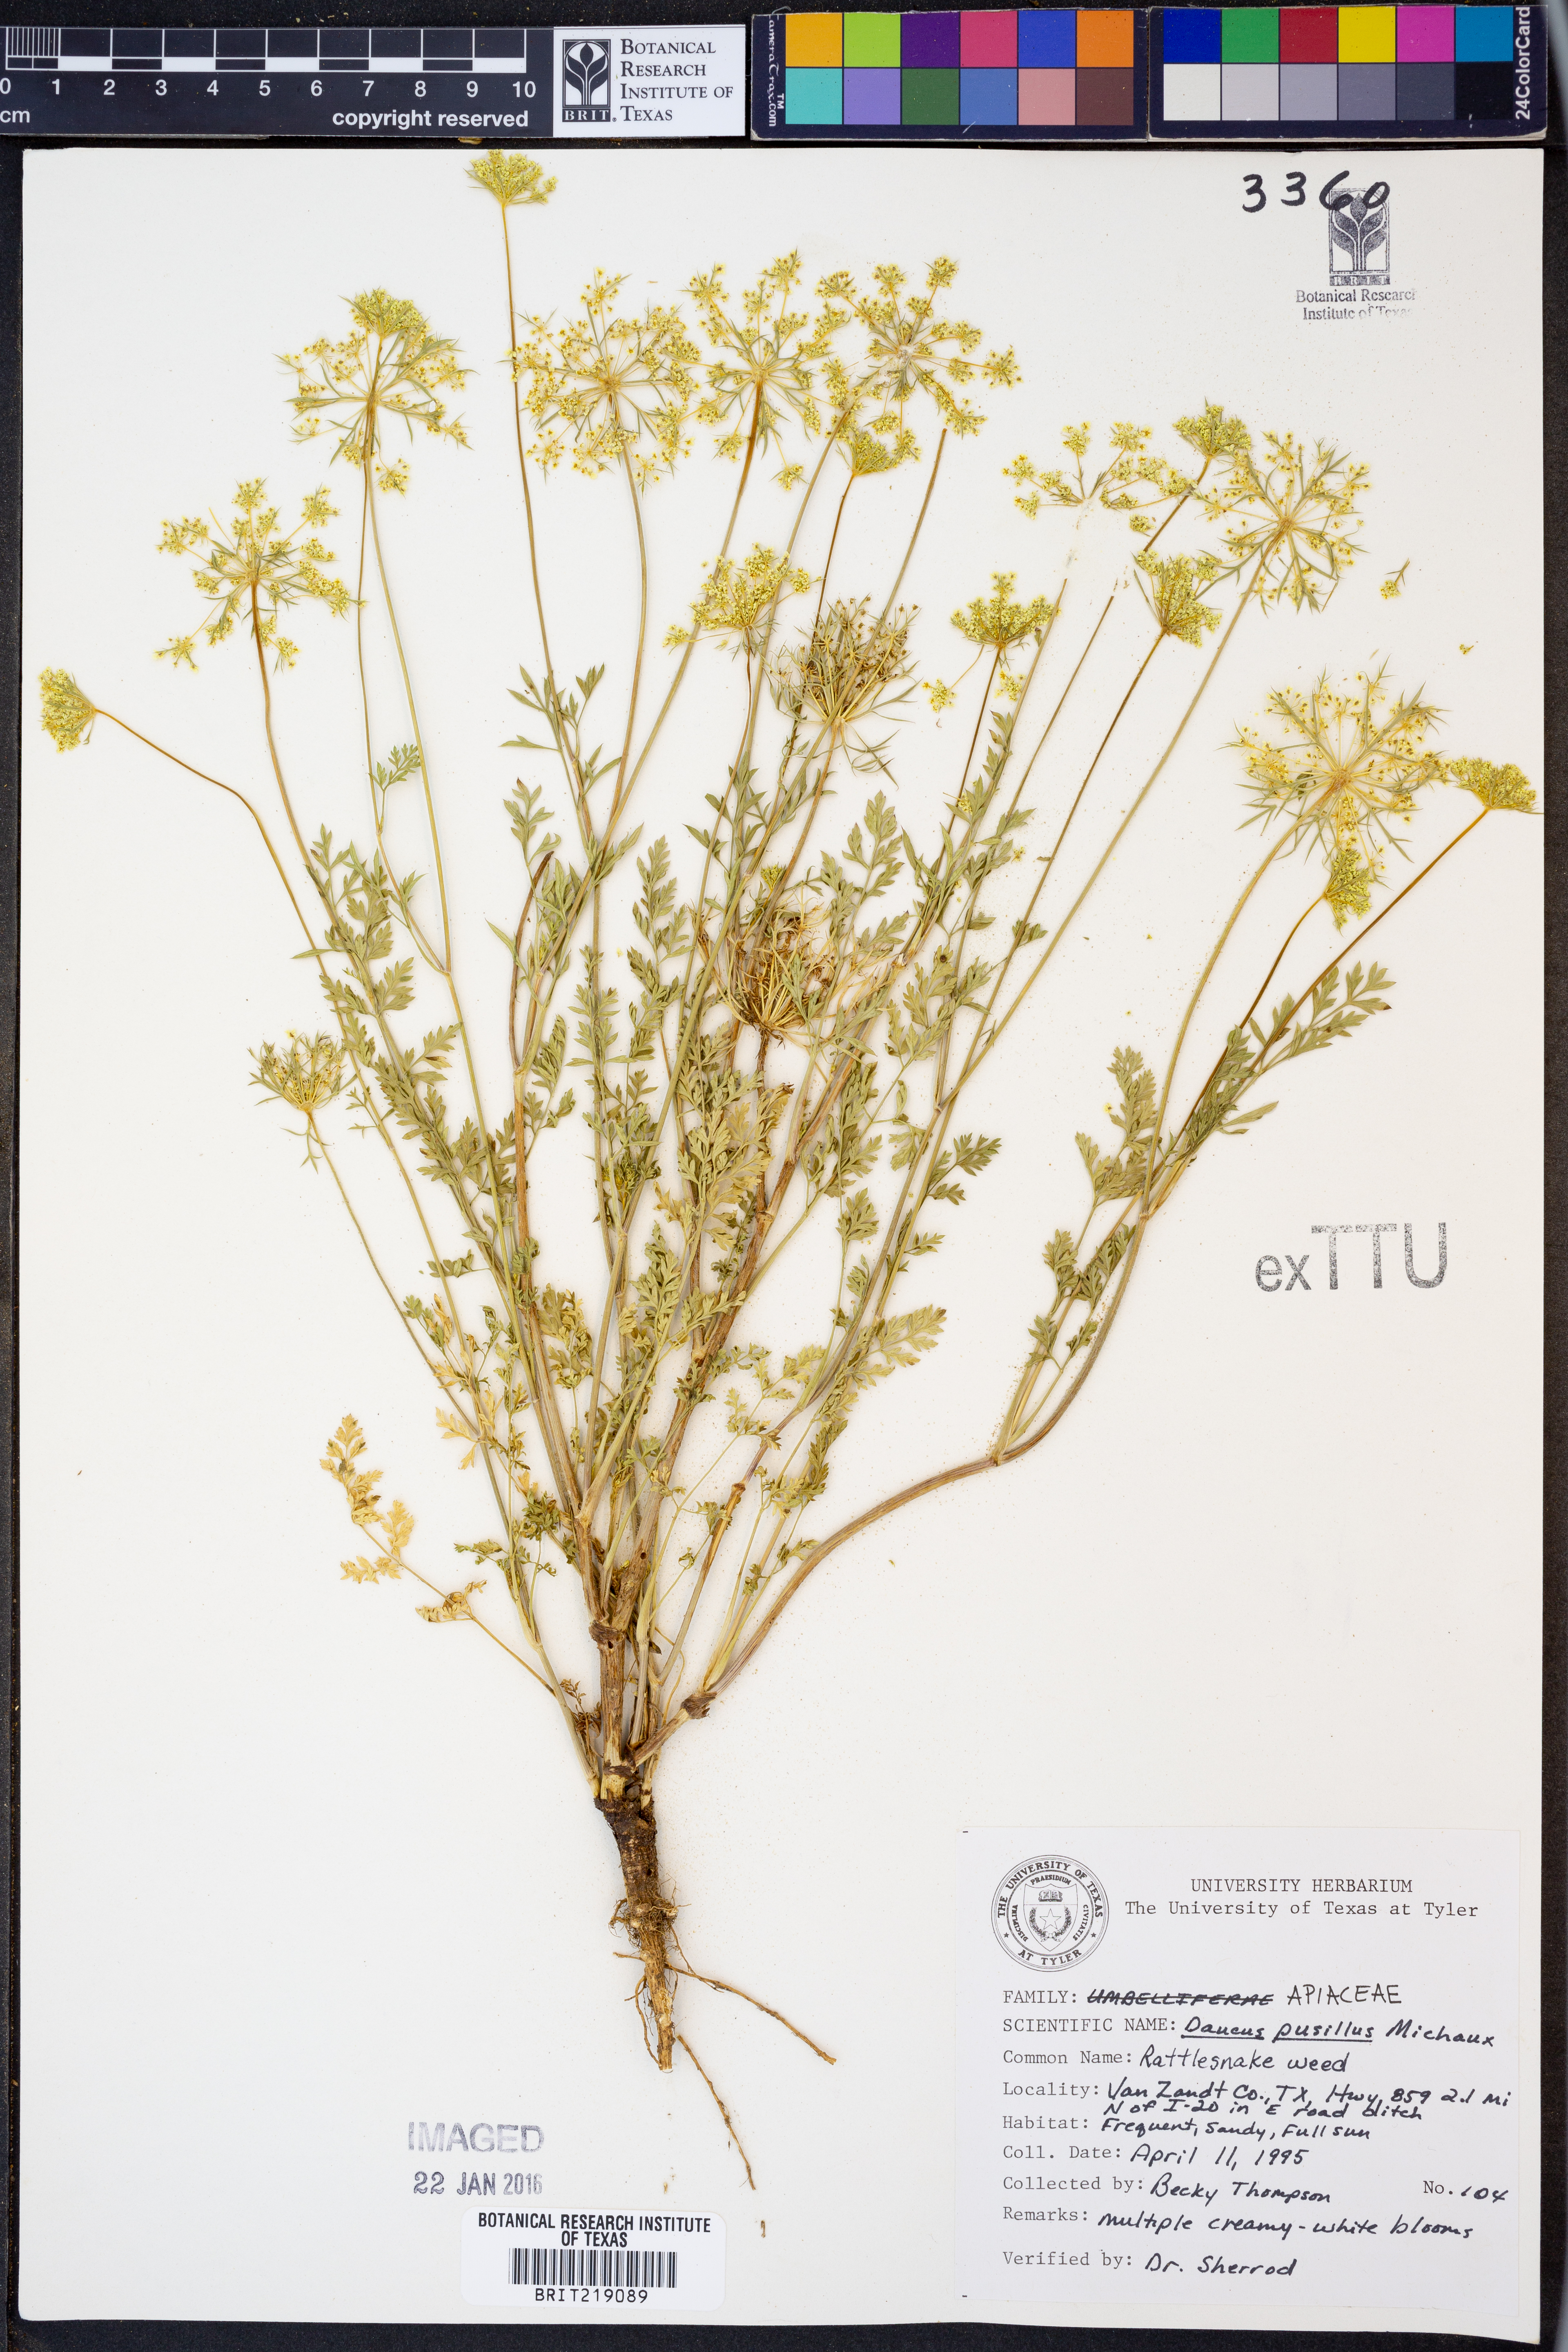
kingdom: Plantae
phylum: Tracheophyta
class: Magnoliopsida
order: Apiales
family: Apiaceae
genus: Daucus
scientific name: Daucus pusillus
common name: Southwest wild carrot
